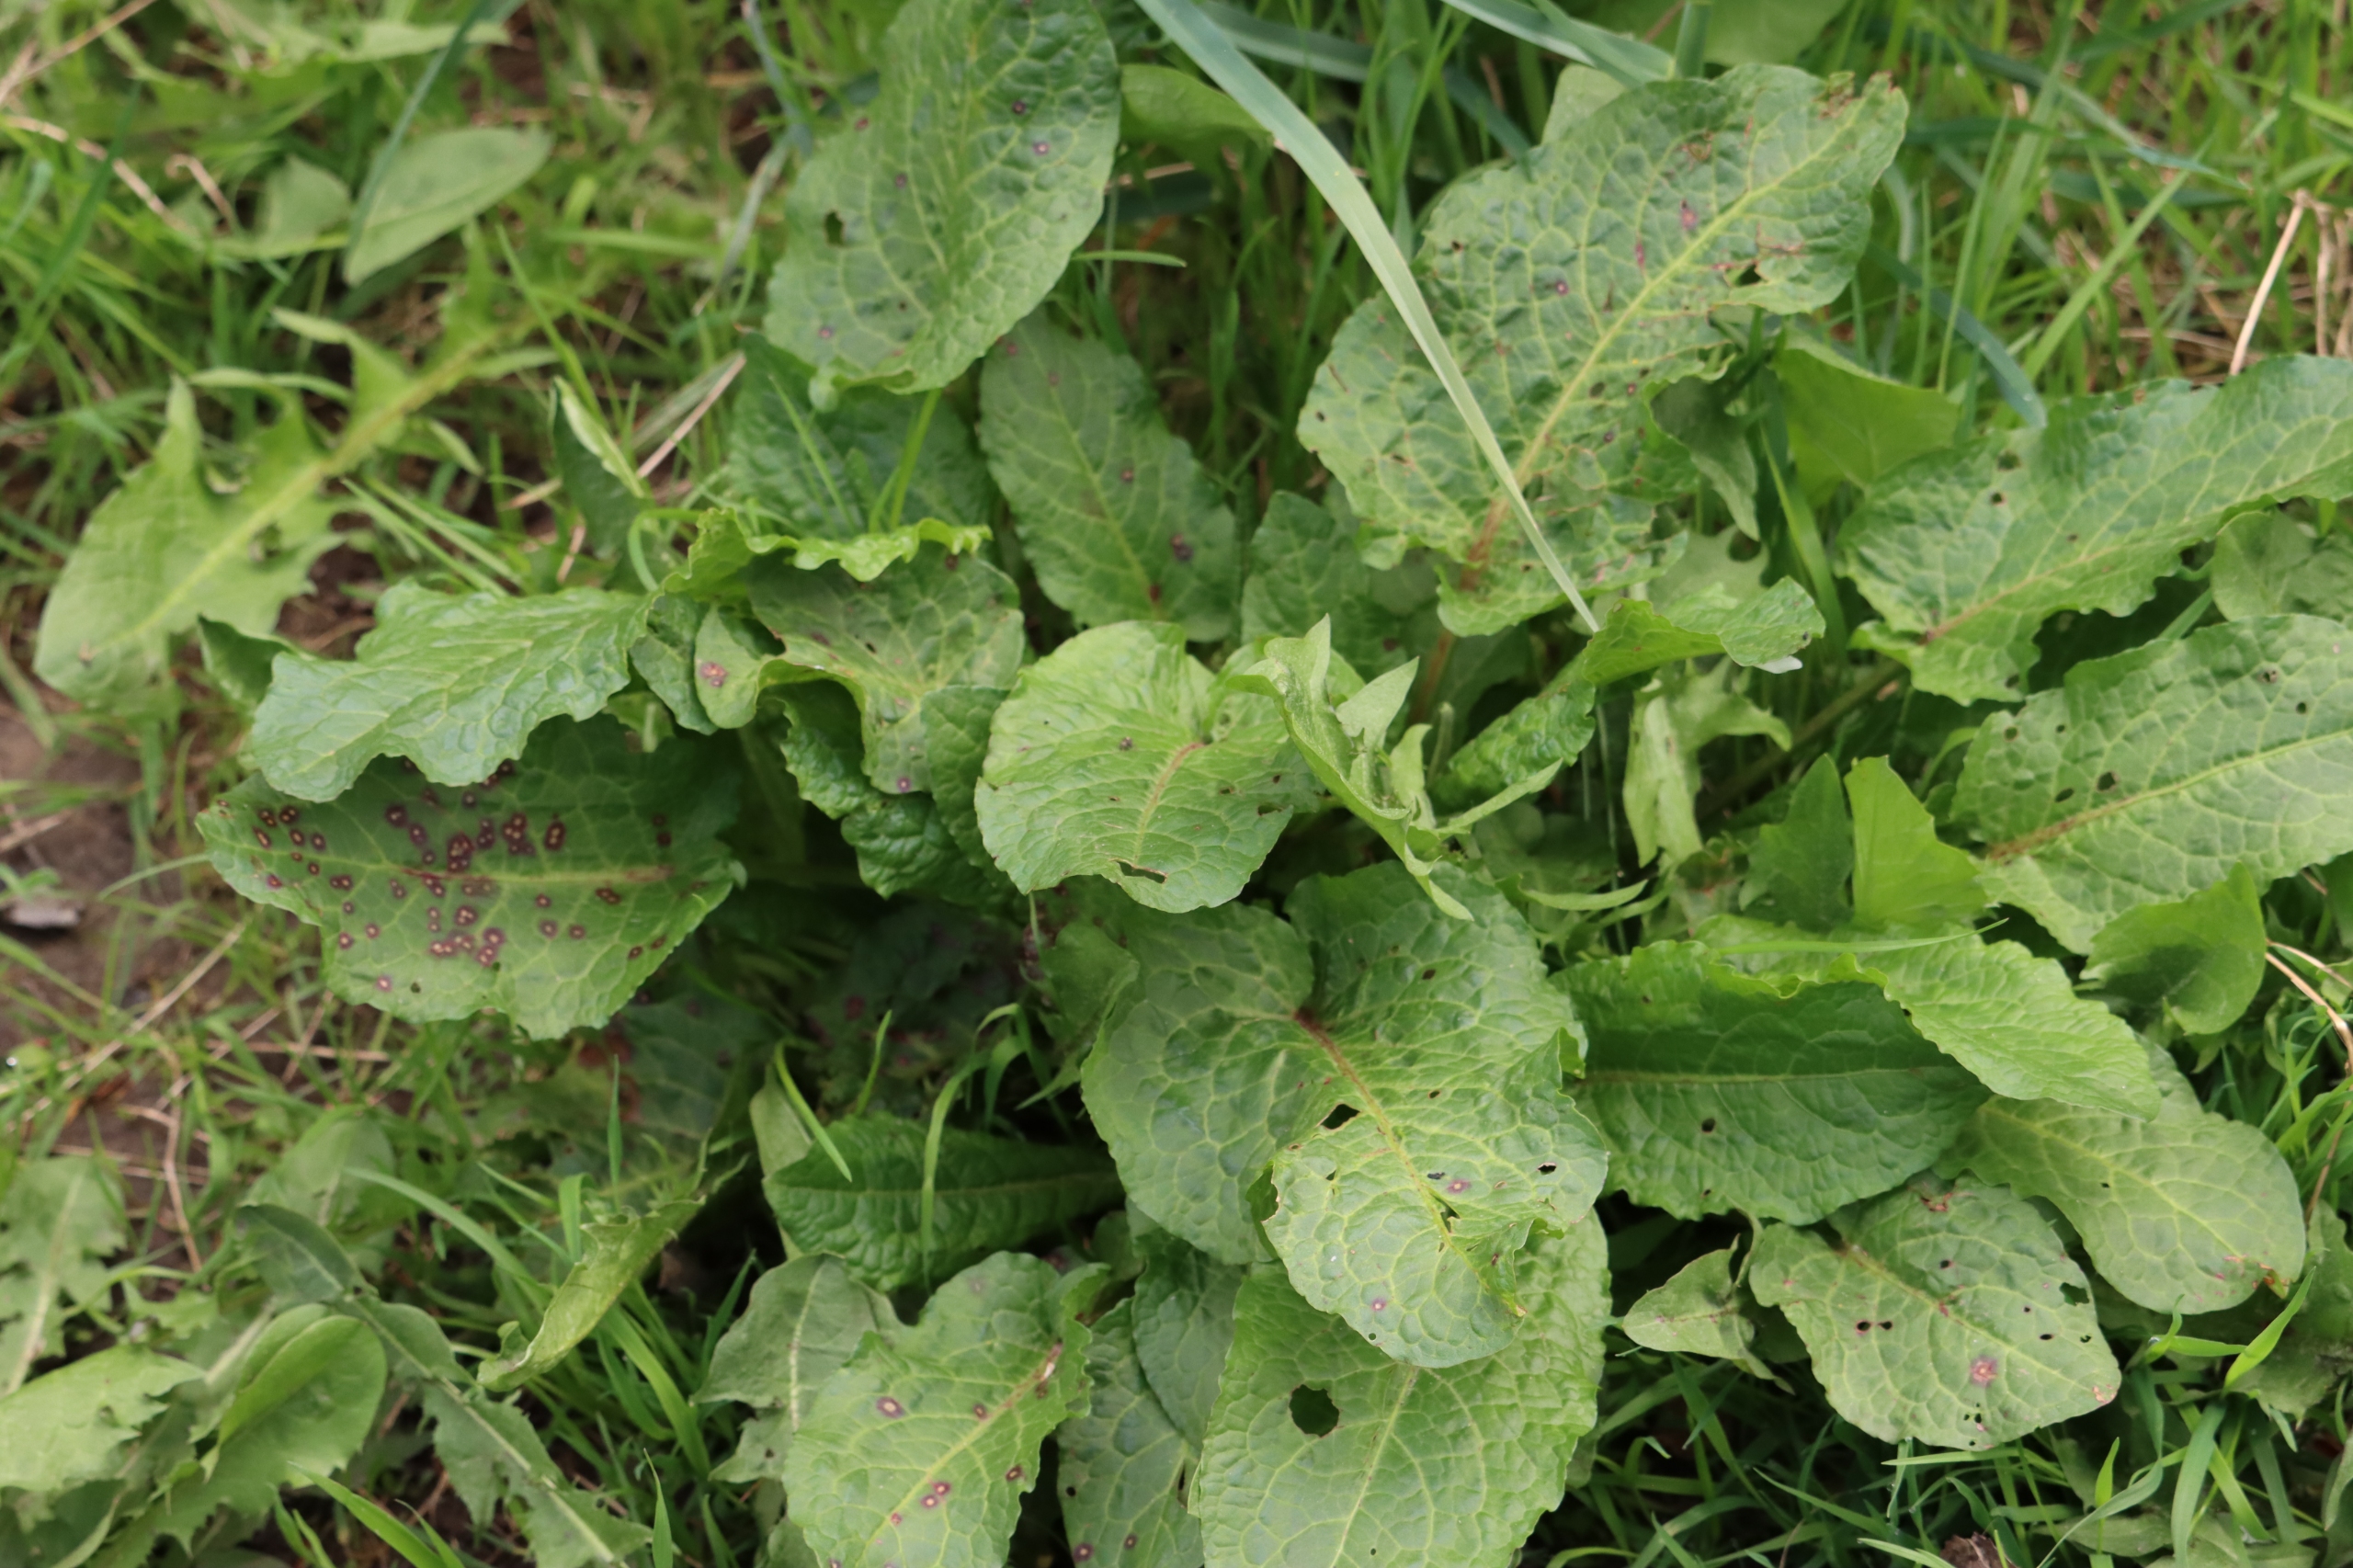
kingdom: Plantae
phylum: Tracheophyta
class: Magnoliopsida
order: Caryophyllales
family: Polygonaceae
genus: Rumex
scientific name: Rumex obtusifolius
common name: Butbladet skræppe
